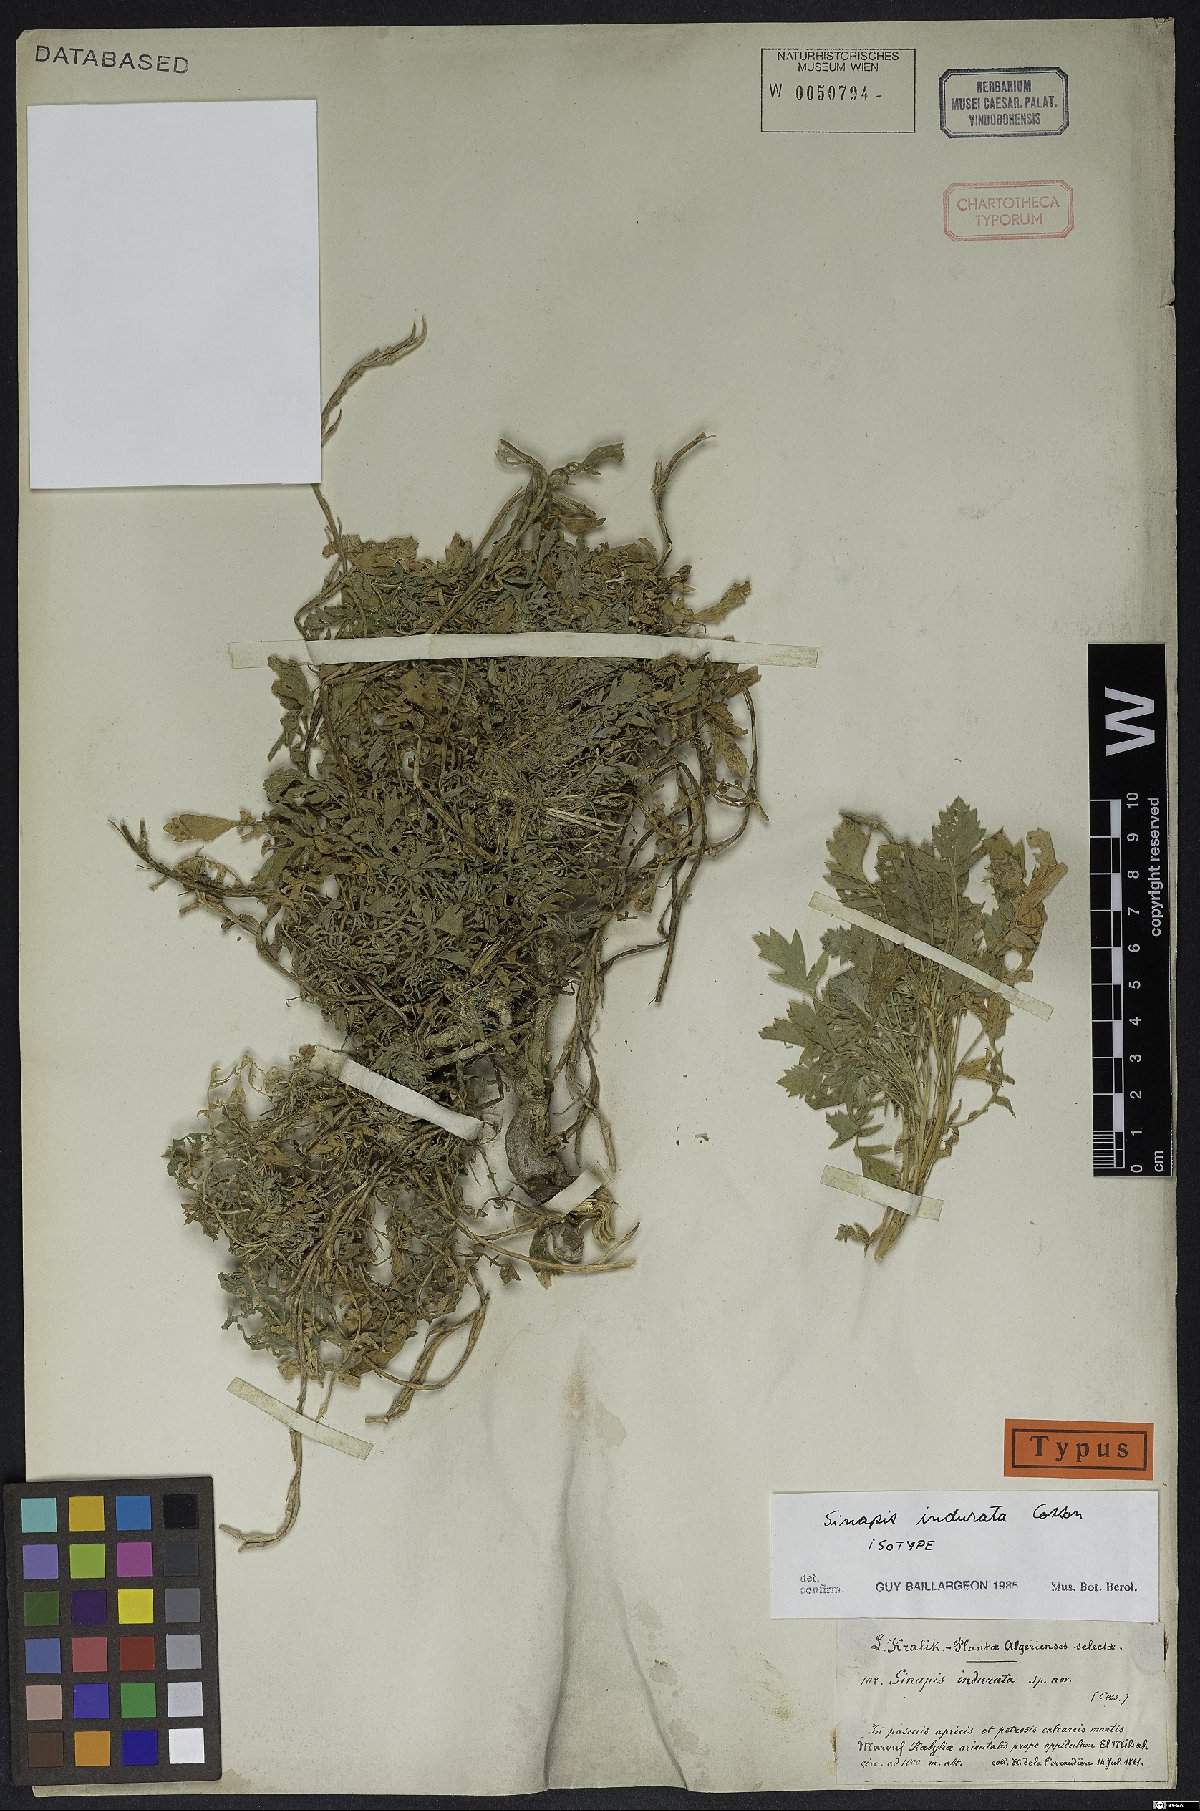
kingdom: Plantae
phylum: Tracheophyta
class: Magnoliopsida
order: Brassicales
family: Brassicaceae
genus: Sinapis
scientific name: Sinapis pubescens
